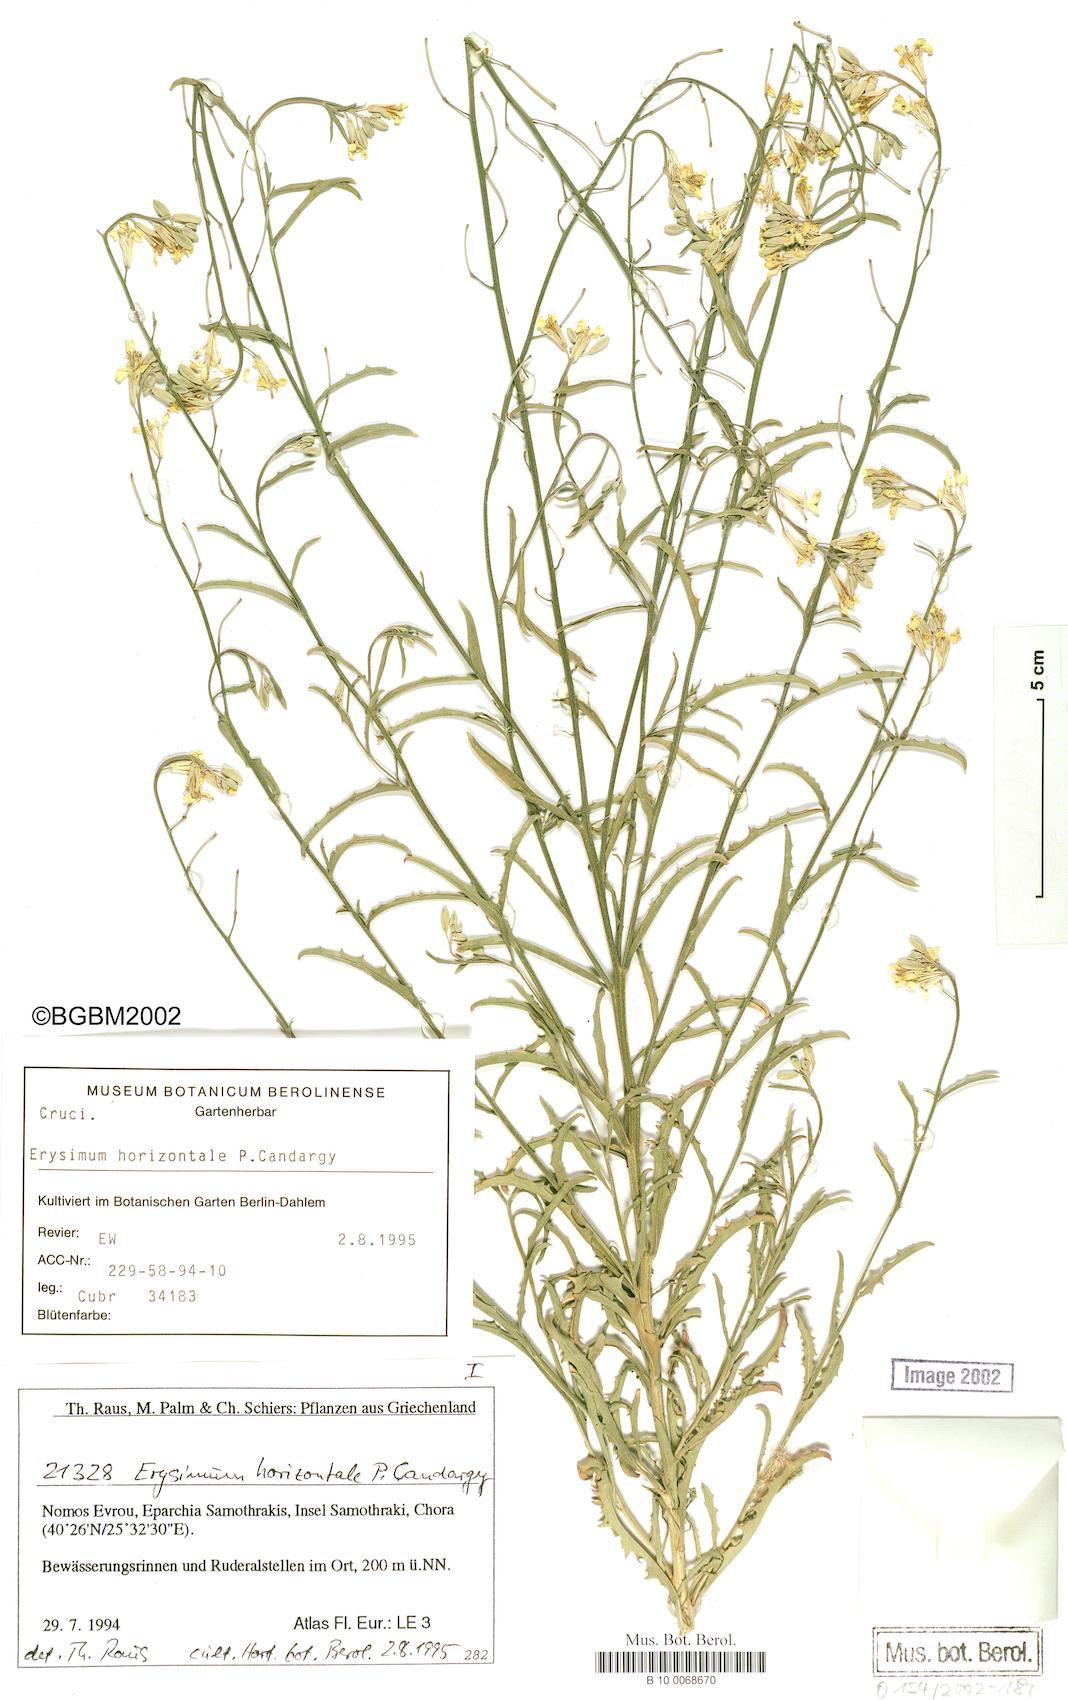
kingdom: Plantae
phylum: Tracheophyta
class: Magnoliopsida
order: Brassicales
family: Brassicaceae
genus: Erysimum
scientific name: Erysimum horizontale
